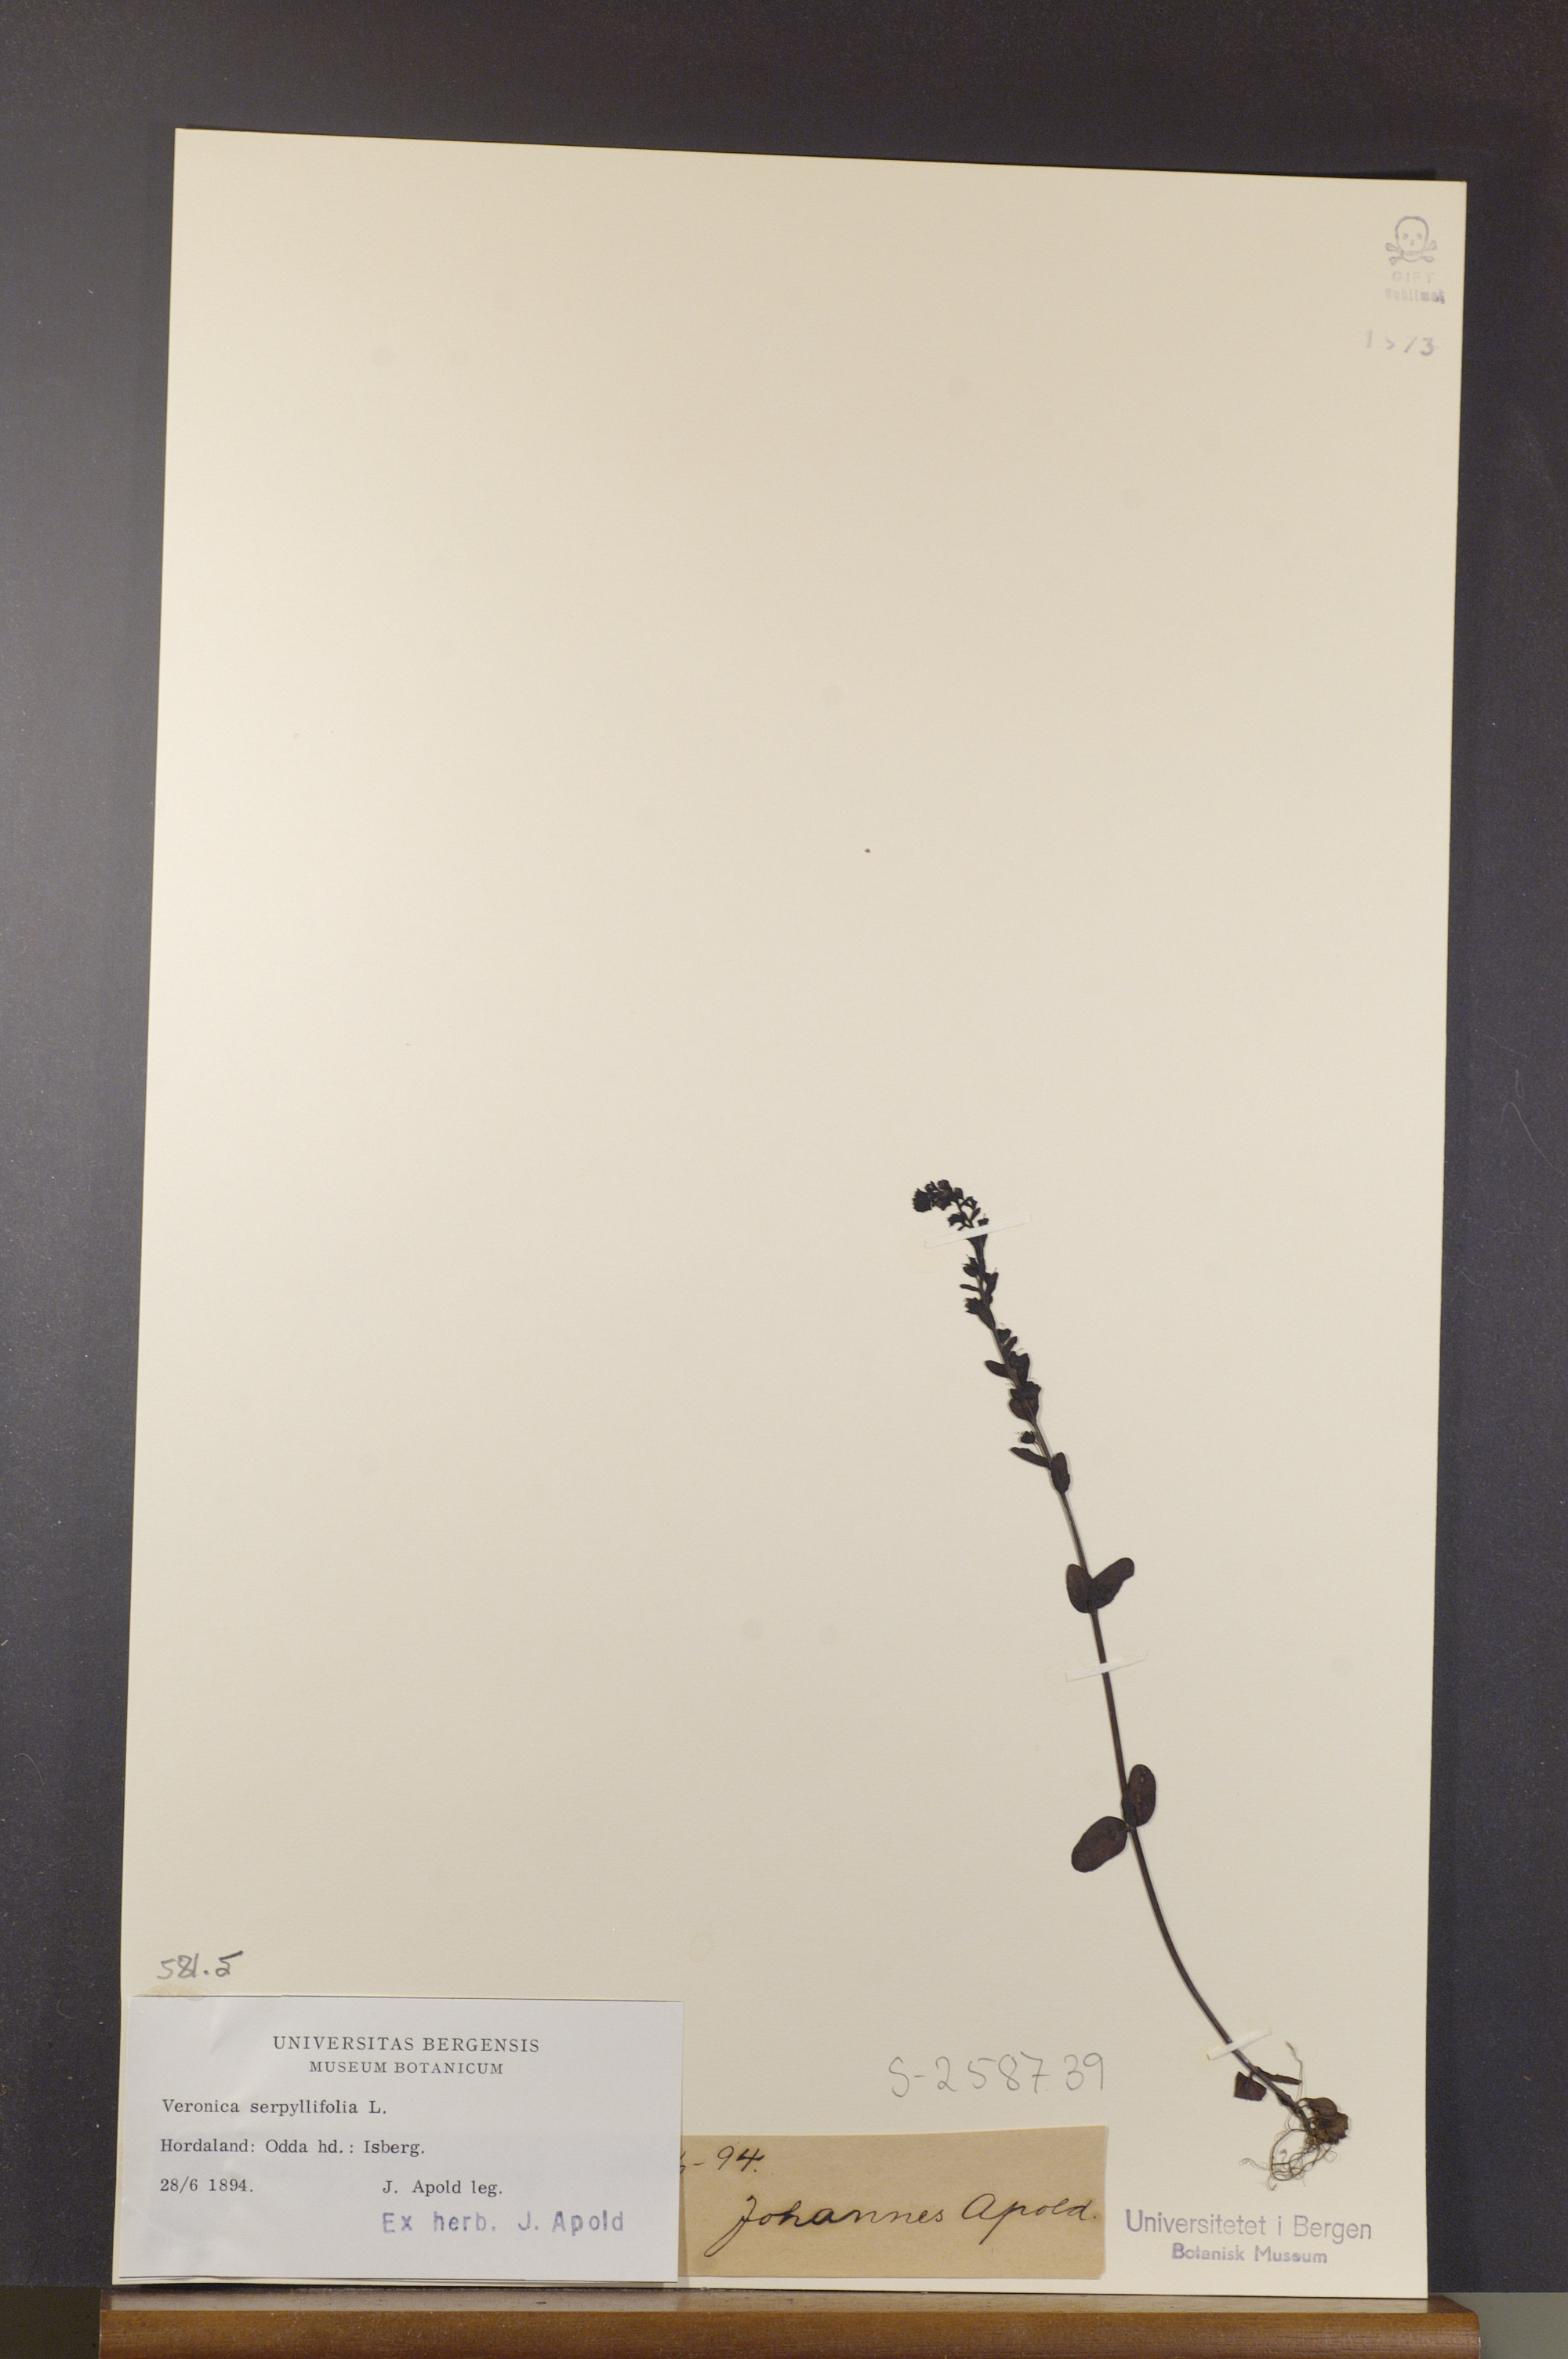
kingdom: Plantae
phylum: Tracheophyta
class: Magnoliopsida
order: Lamiales
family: Plantaginaceae
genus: Veronica
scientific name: Veronica serpyllifolia
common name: Thyme-leaved speedwell
